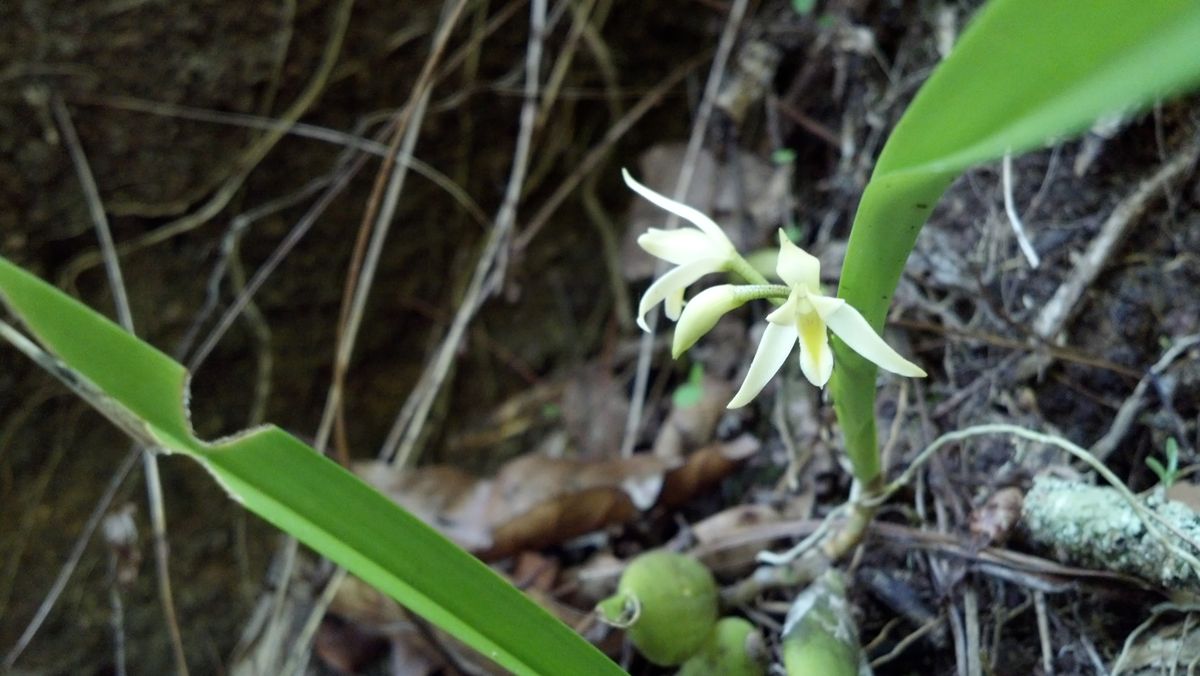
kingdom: Plantae
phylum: Tracheophyta
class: Liliopsida
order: Asparagales
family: Orchidaceae
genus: Nidema
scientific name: Nidema boothii
